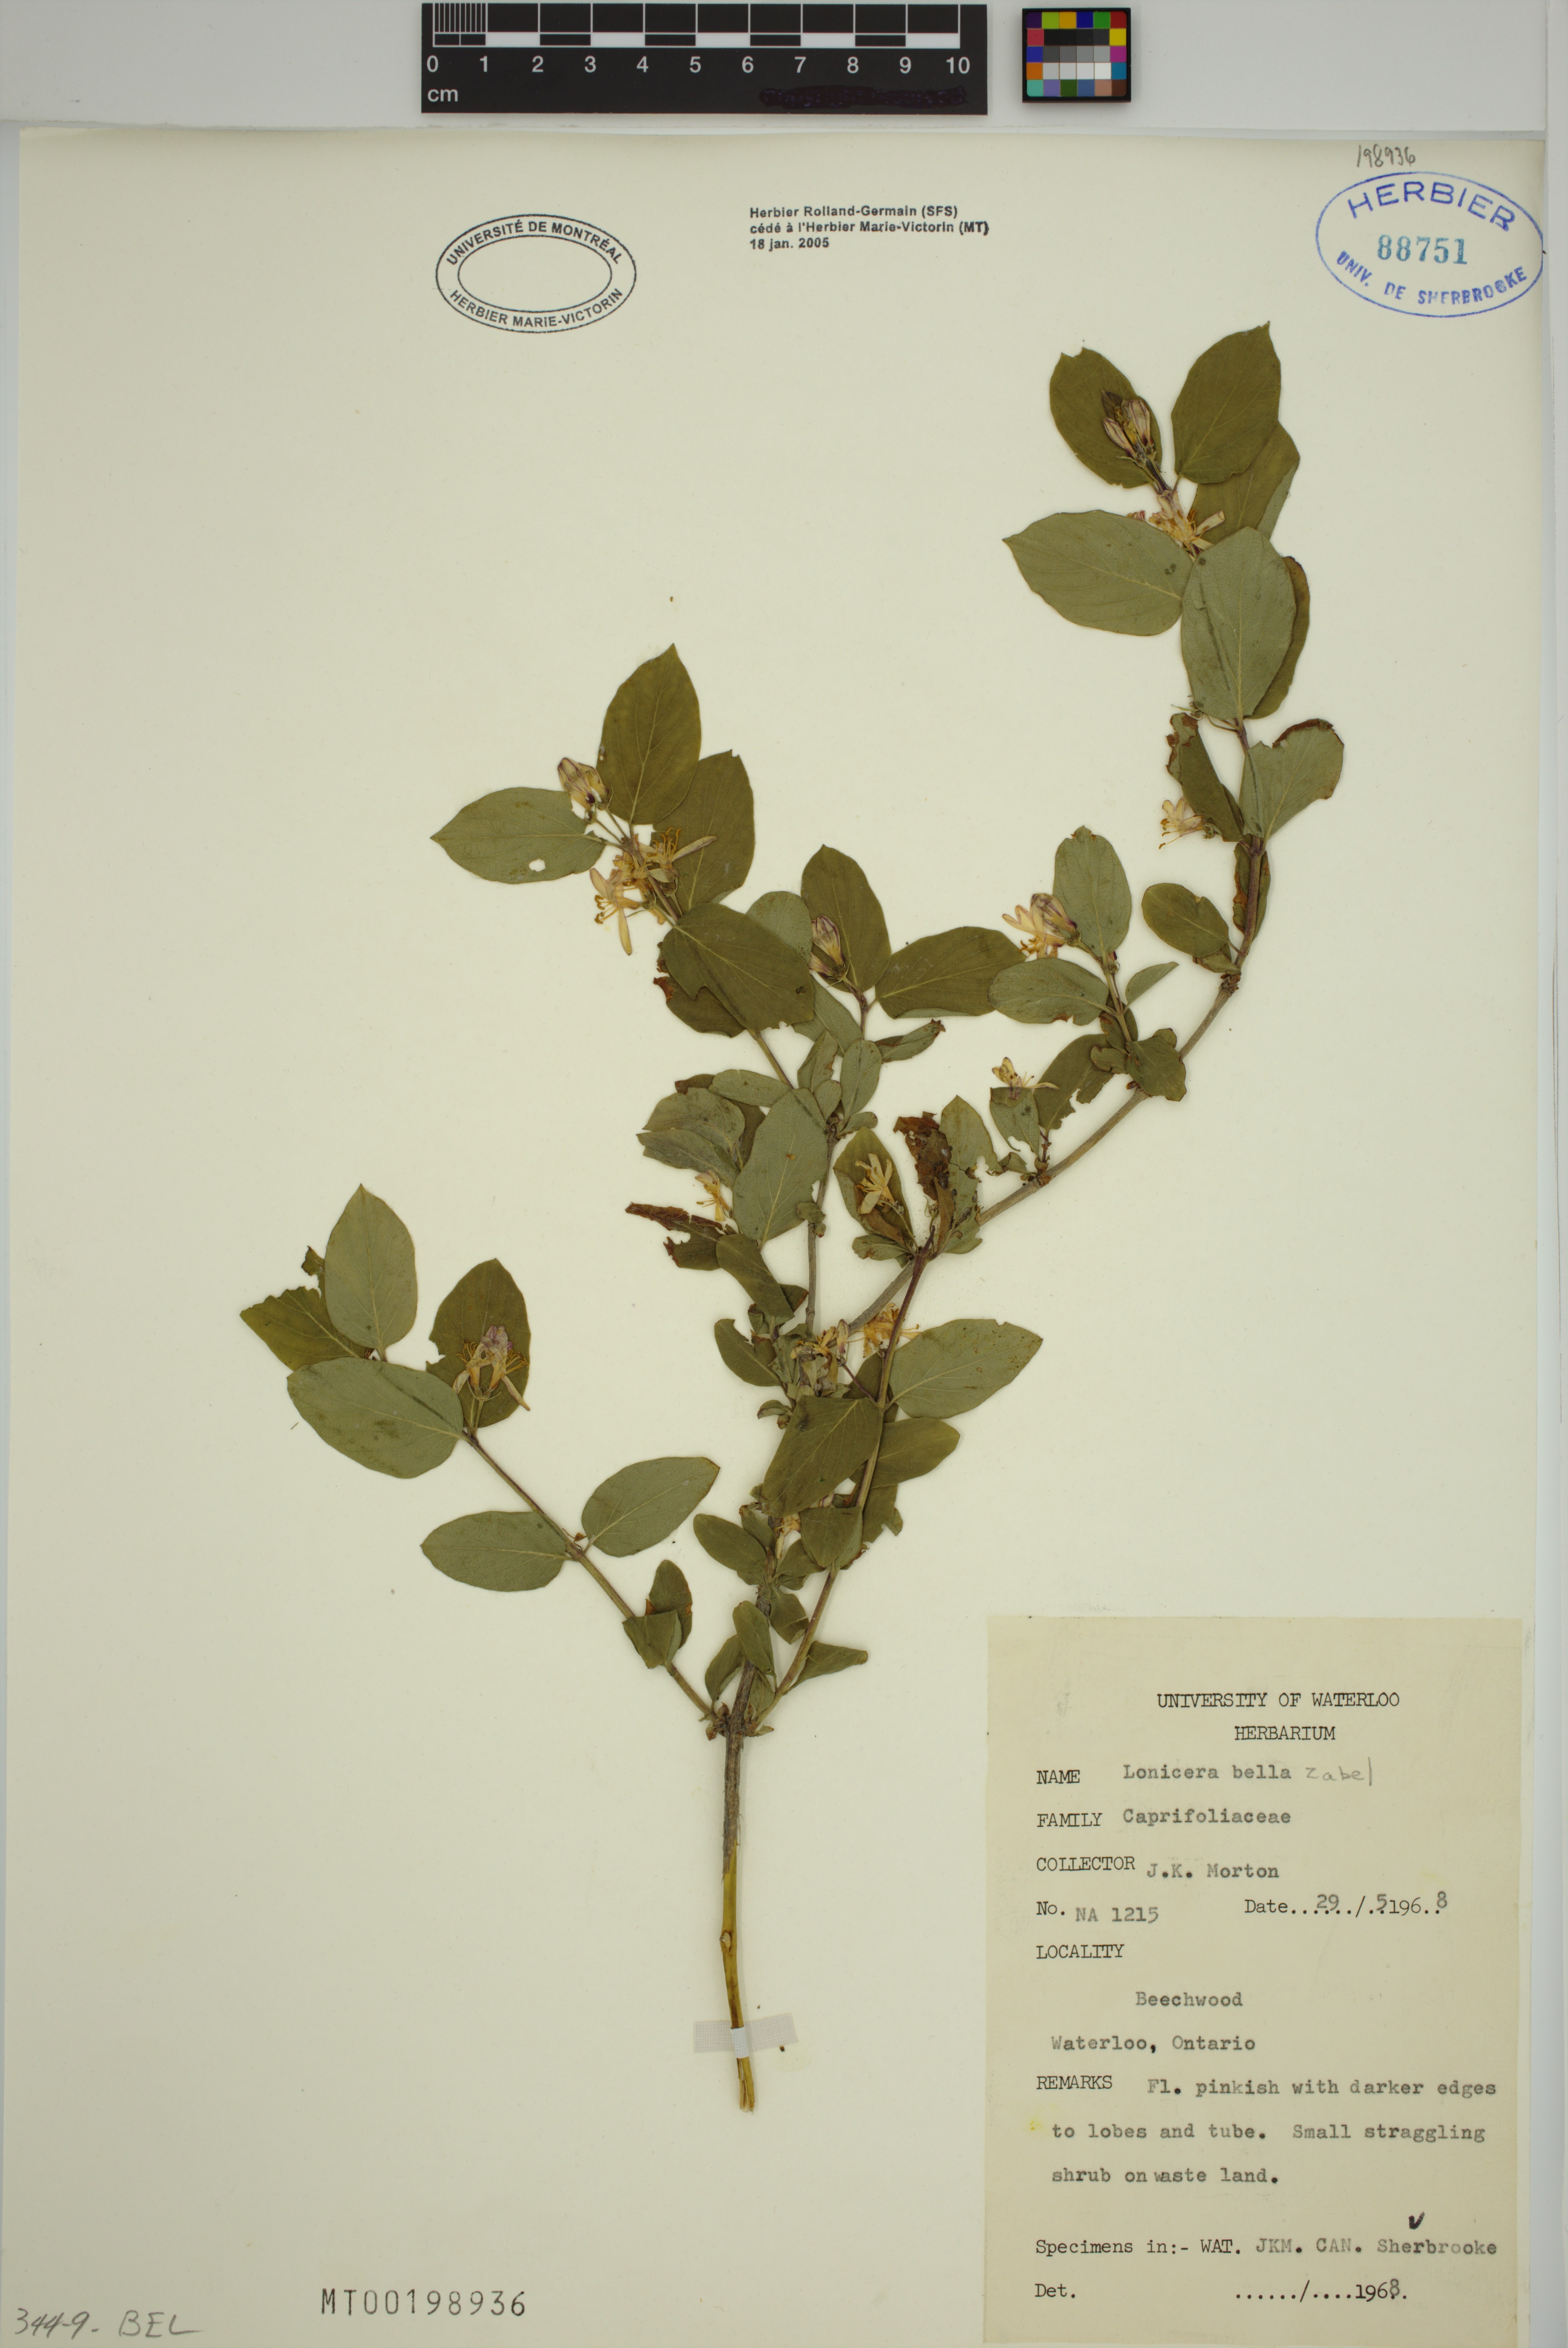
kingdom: Plantae
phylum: Tracheophyta
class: Magnoliopsida
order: Dipsacales
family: Caprifoliaceae
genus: Lonicera
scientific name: Lonicera bella
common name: Bell's honeysuckle
